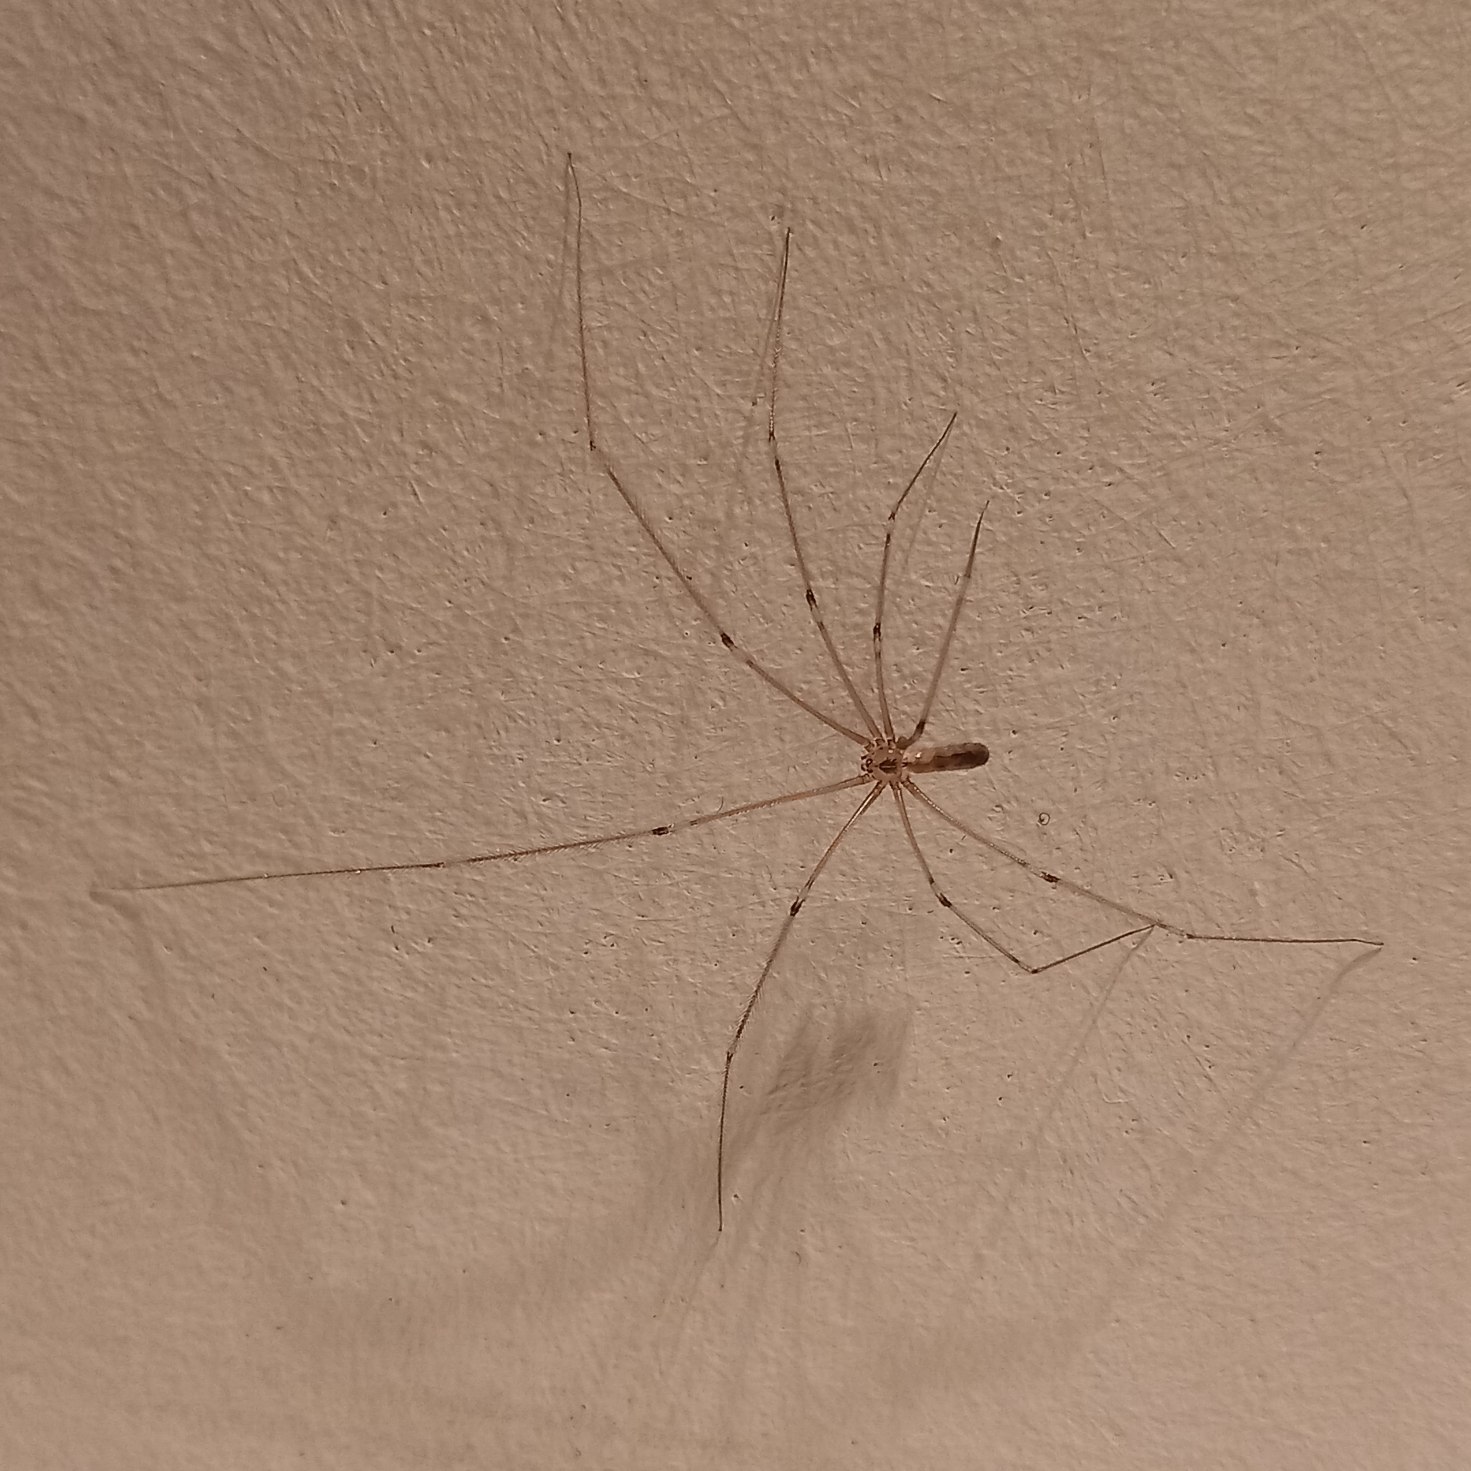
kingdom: Animalia
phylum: Arthropoda
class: Arachnida
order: Araneae
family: Pholcidae
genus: Pholcus
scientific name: Pholcus phalangioides
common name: Mejeredderkop
